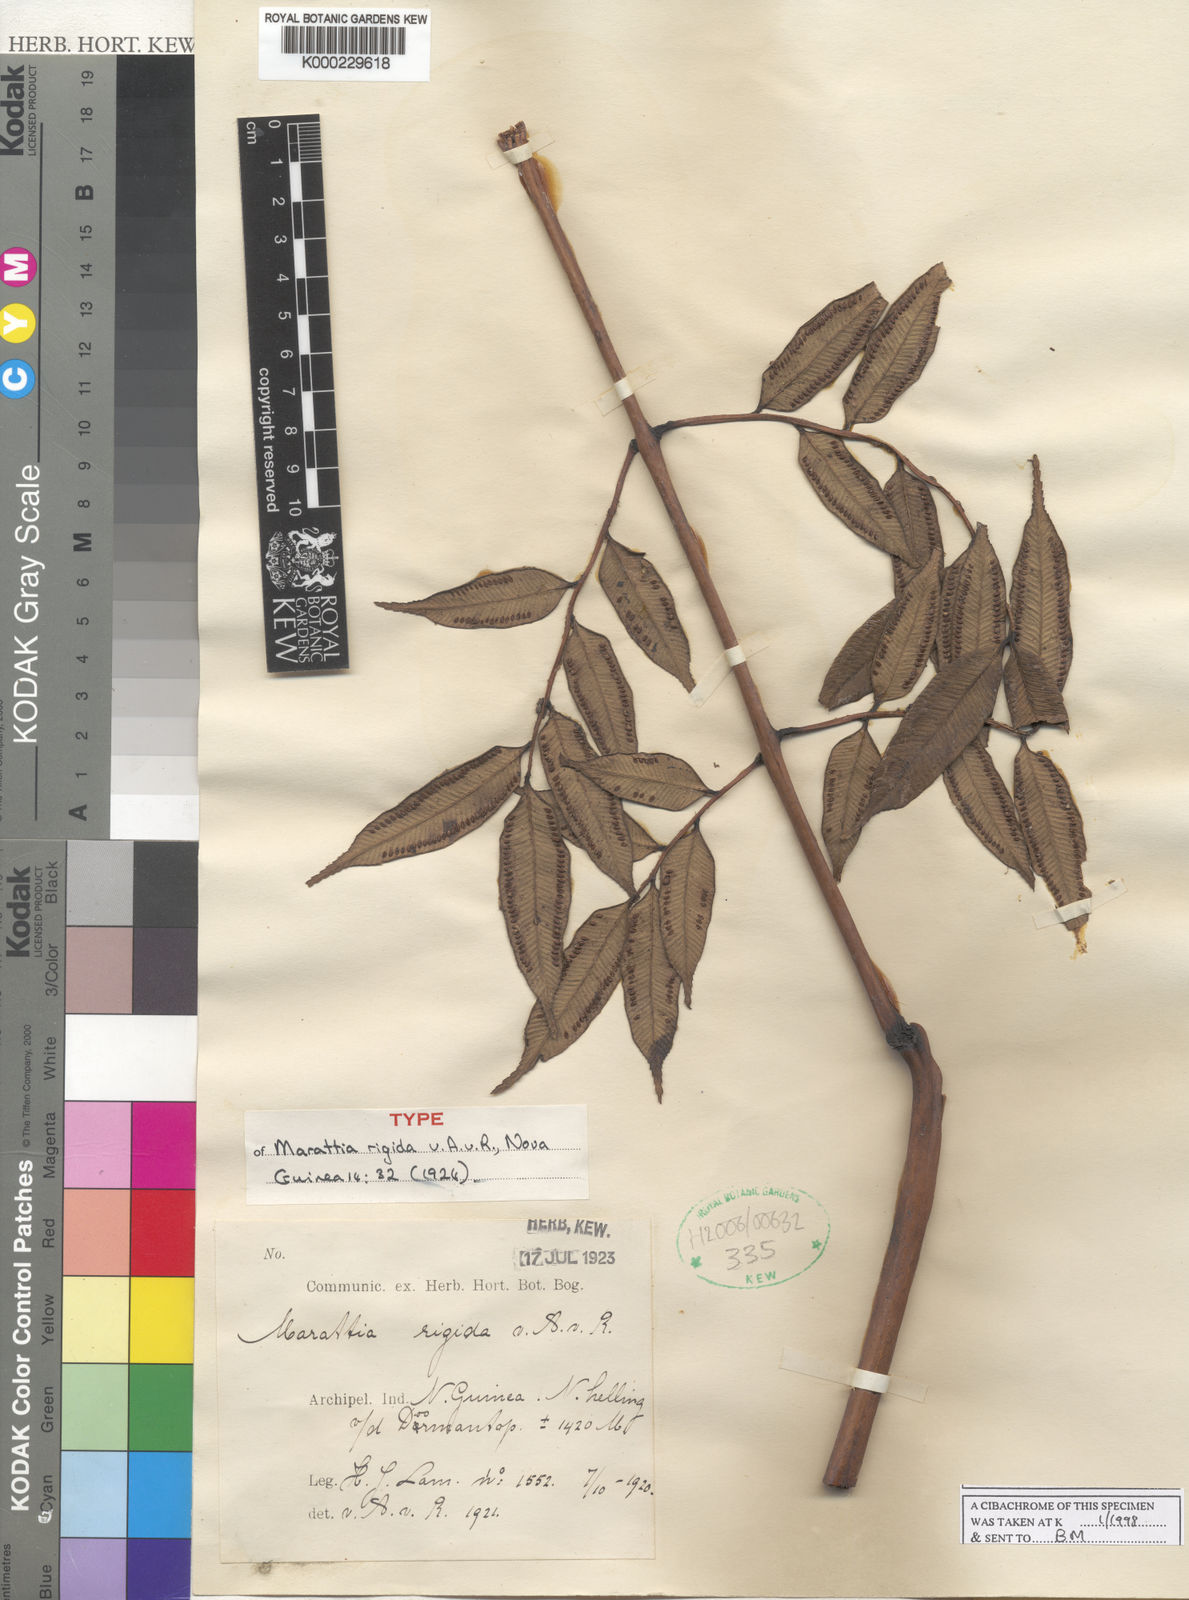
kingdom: Plantae
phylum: Tracheophyta
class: Polypodiopsida
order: Marattiales
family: Marattiaceae
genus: Ptisana
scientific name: Ptisana rigida
